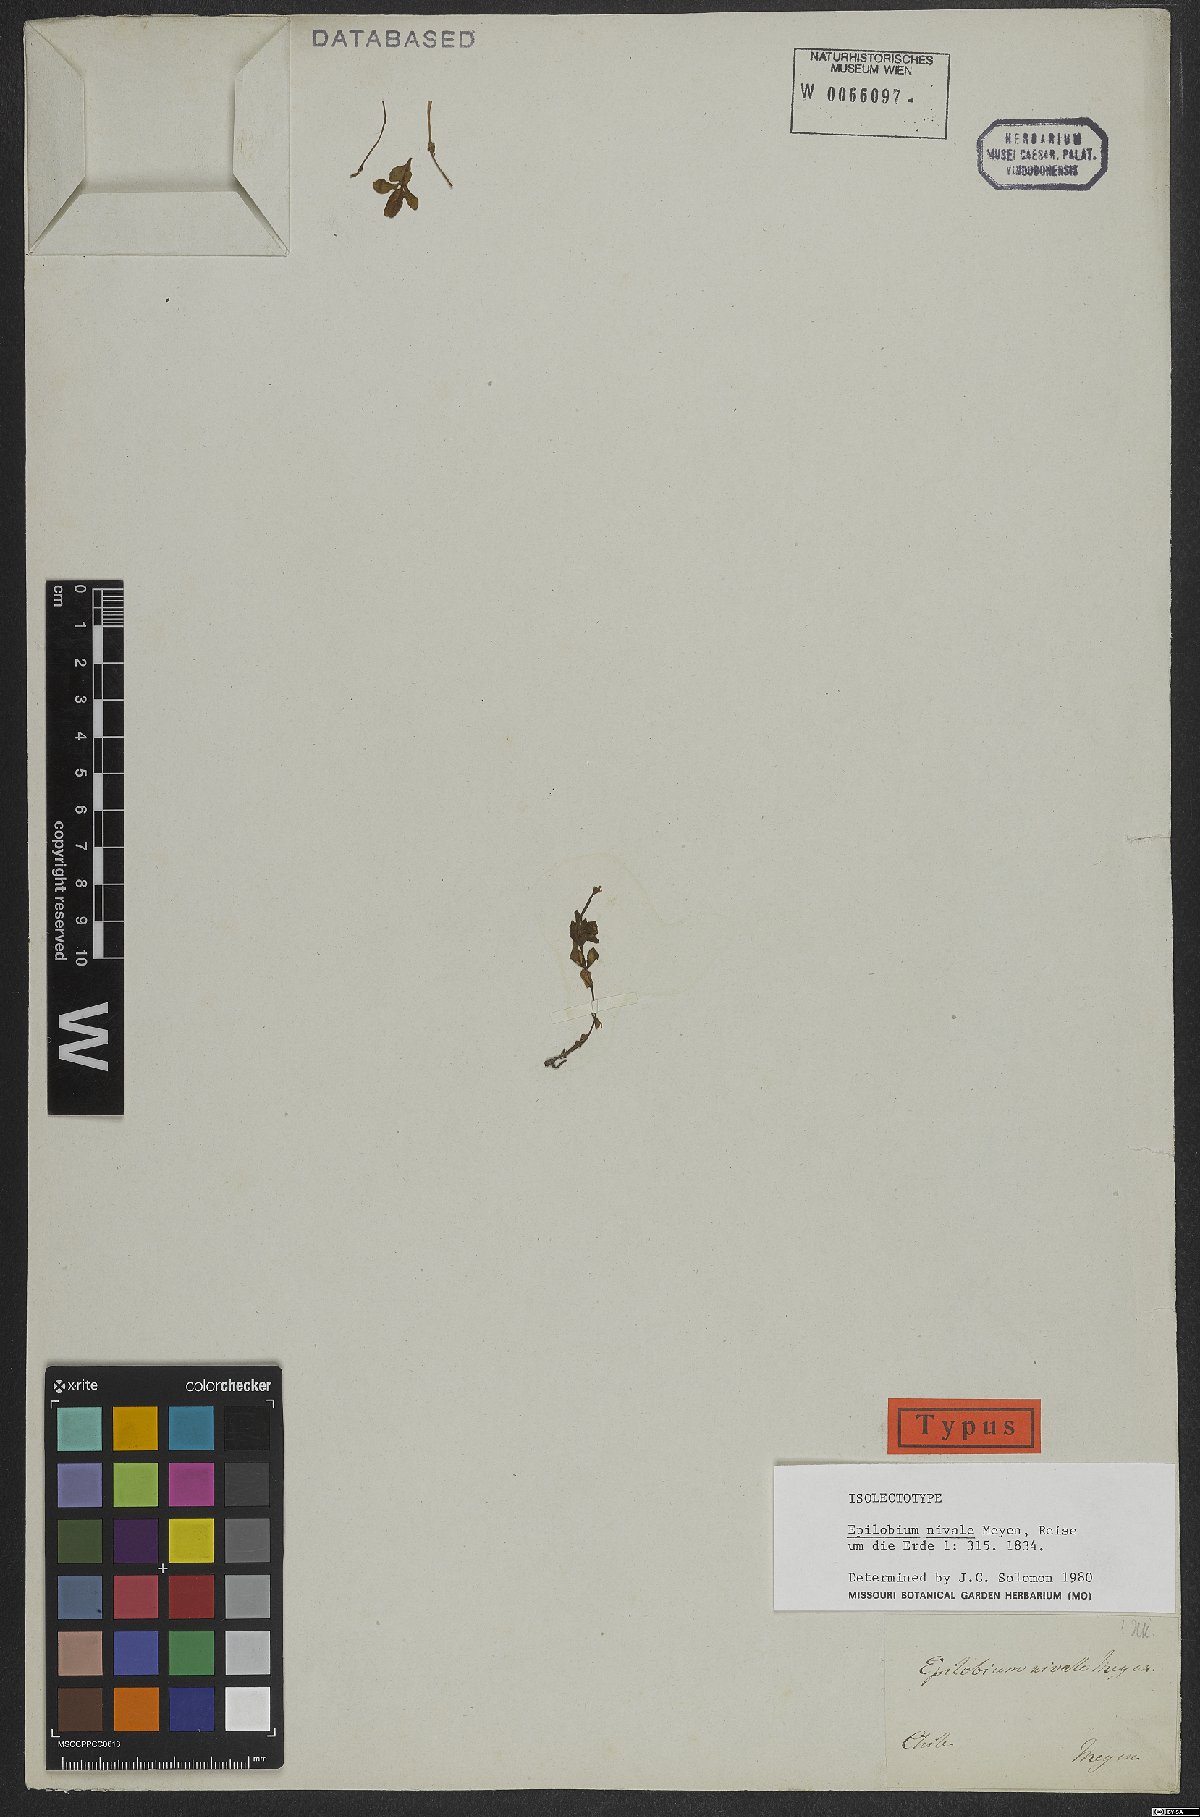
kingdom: Plantae
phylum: Tracheophyta
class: Magnoliopsida
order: Myrtales
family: Onagraceae
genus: Epilobium
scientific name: Epilobium nivale
